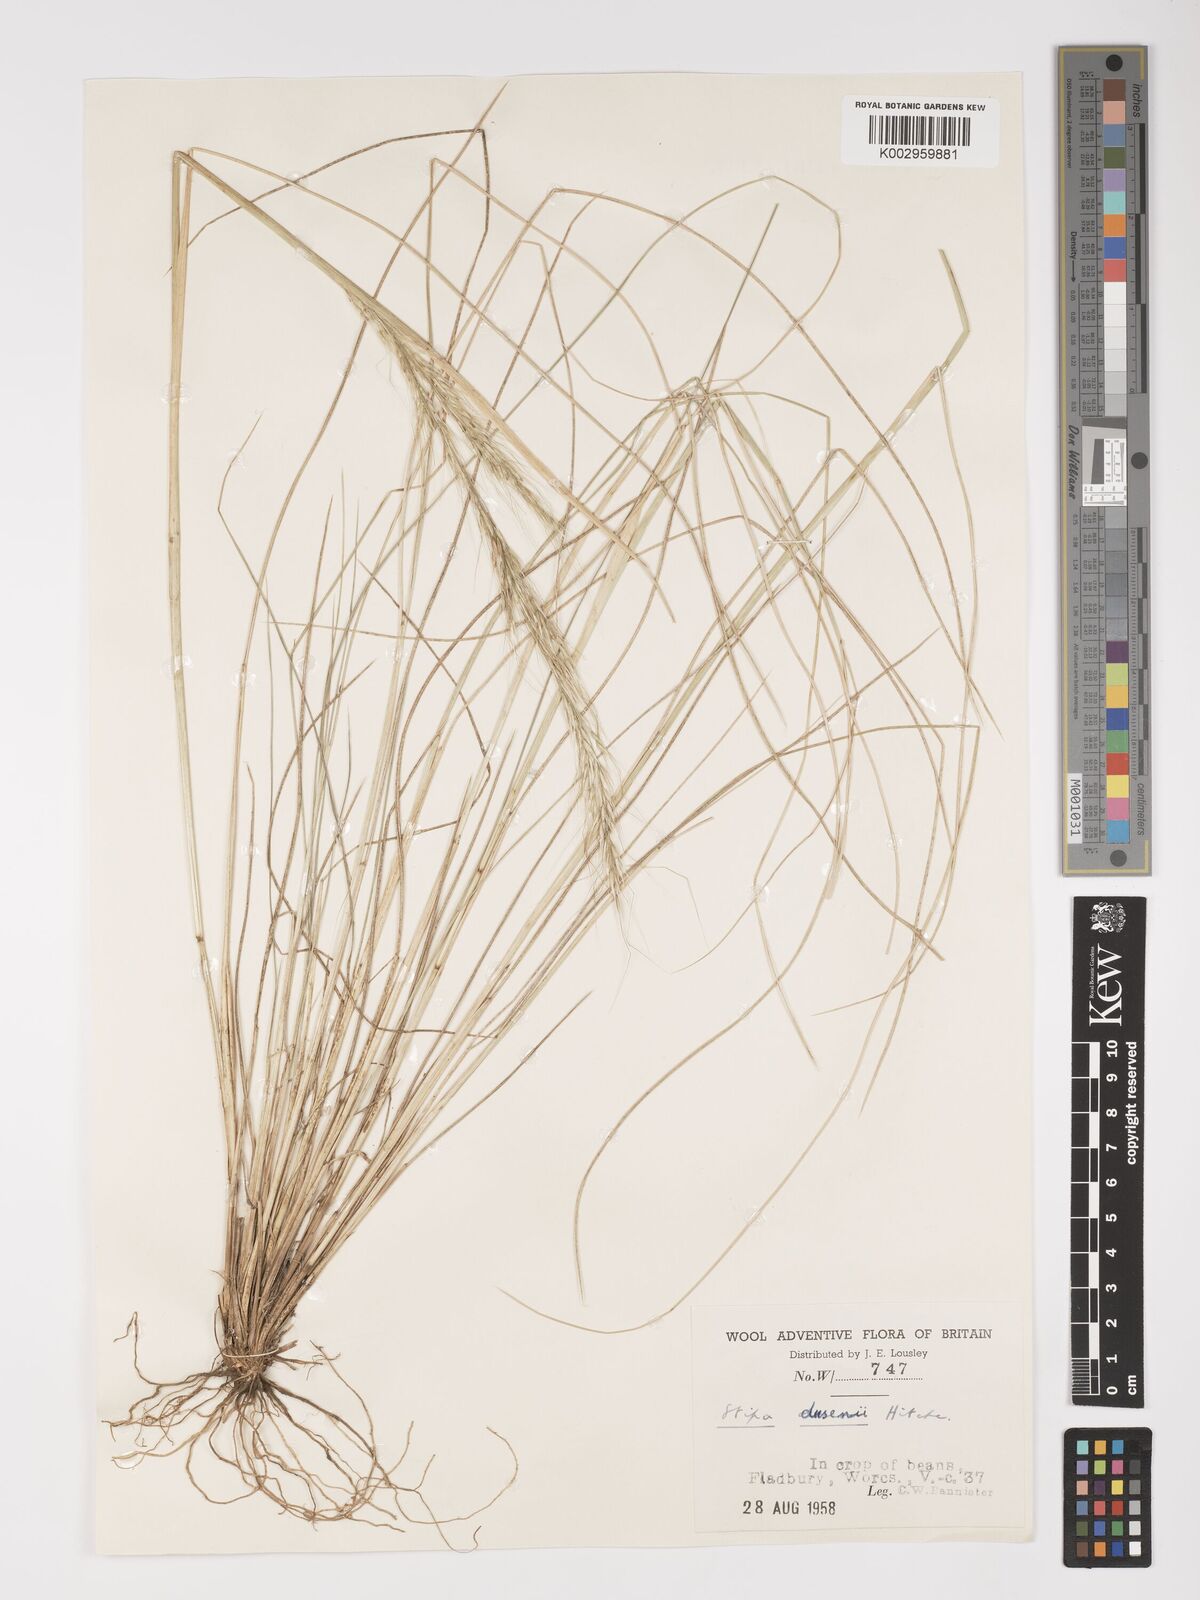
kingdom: Plantae
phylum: Tracheophyta
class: Liliopsida
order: Poales
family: Poaceae
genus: Amelichloa
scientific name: Amelichloa ambigua
